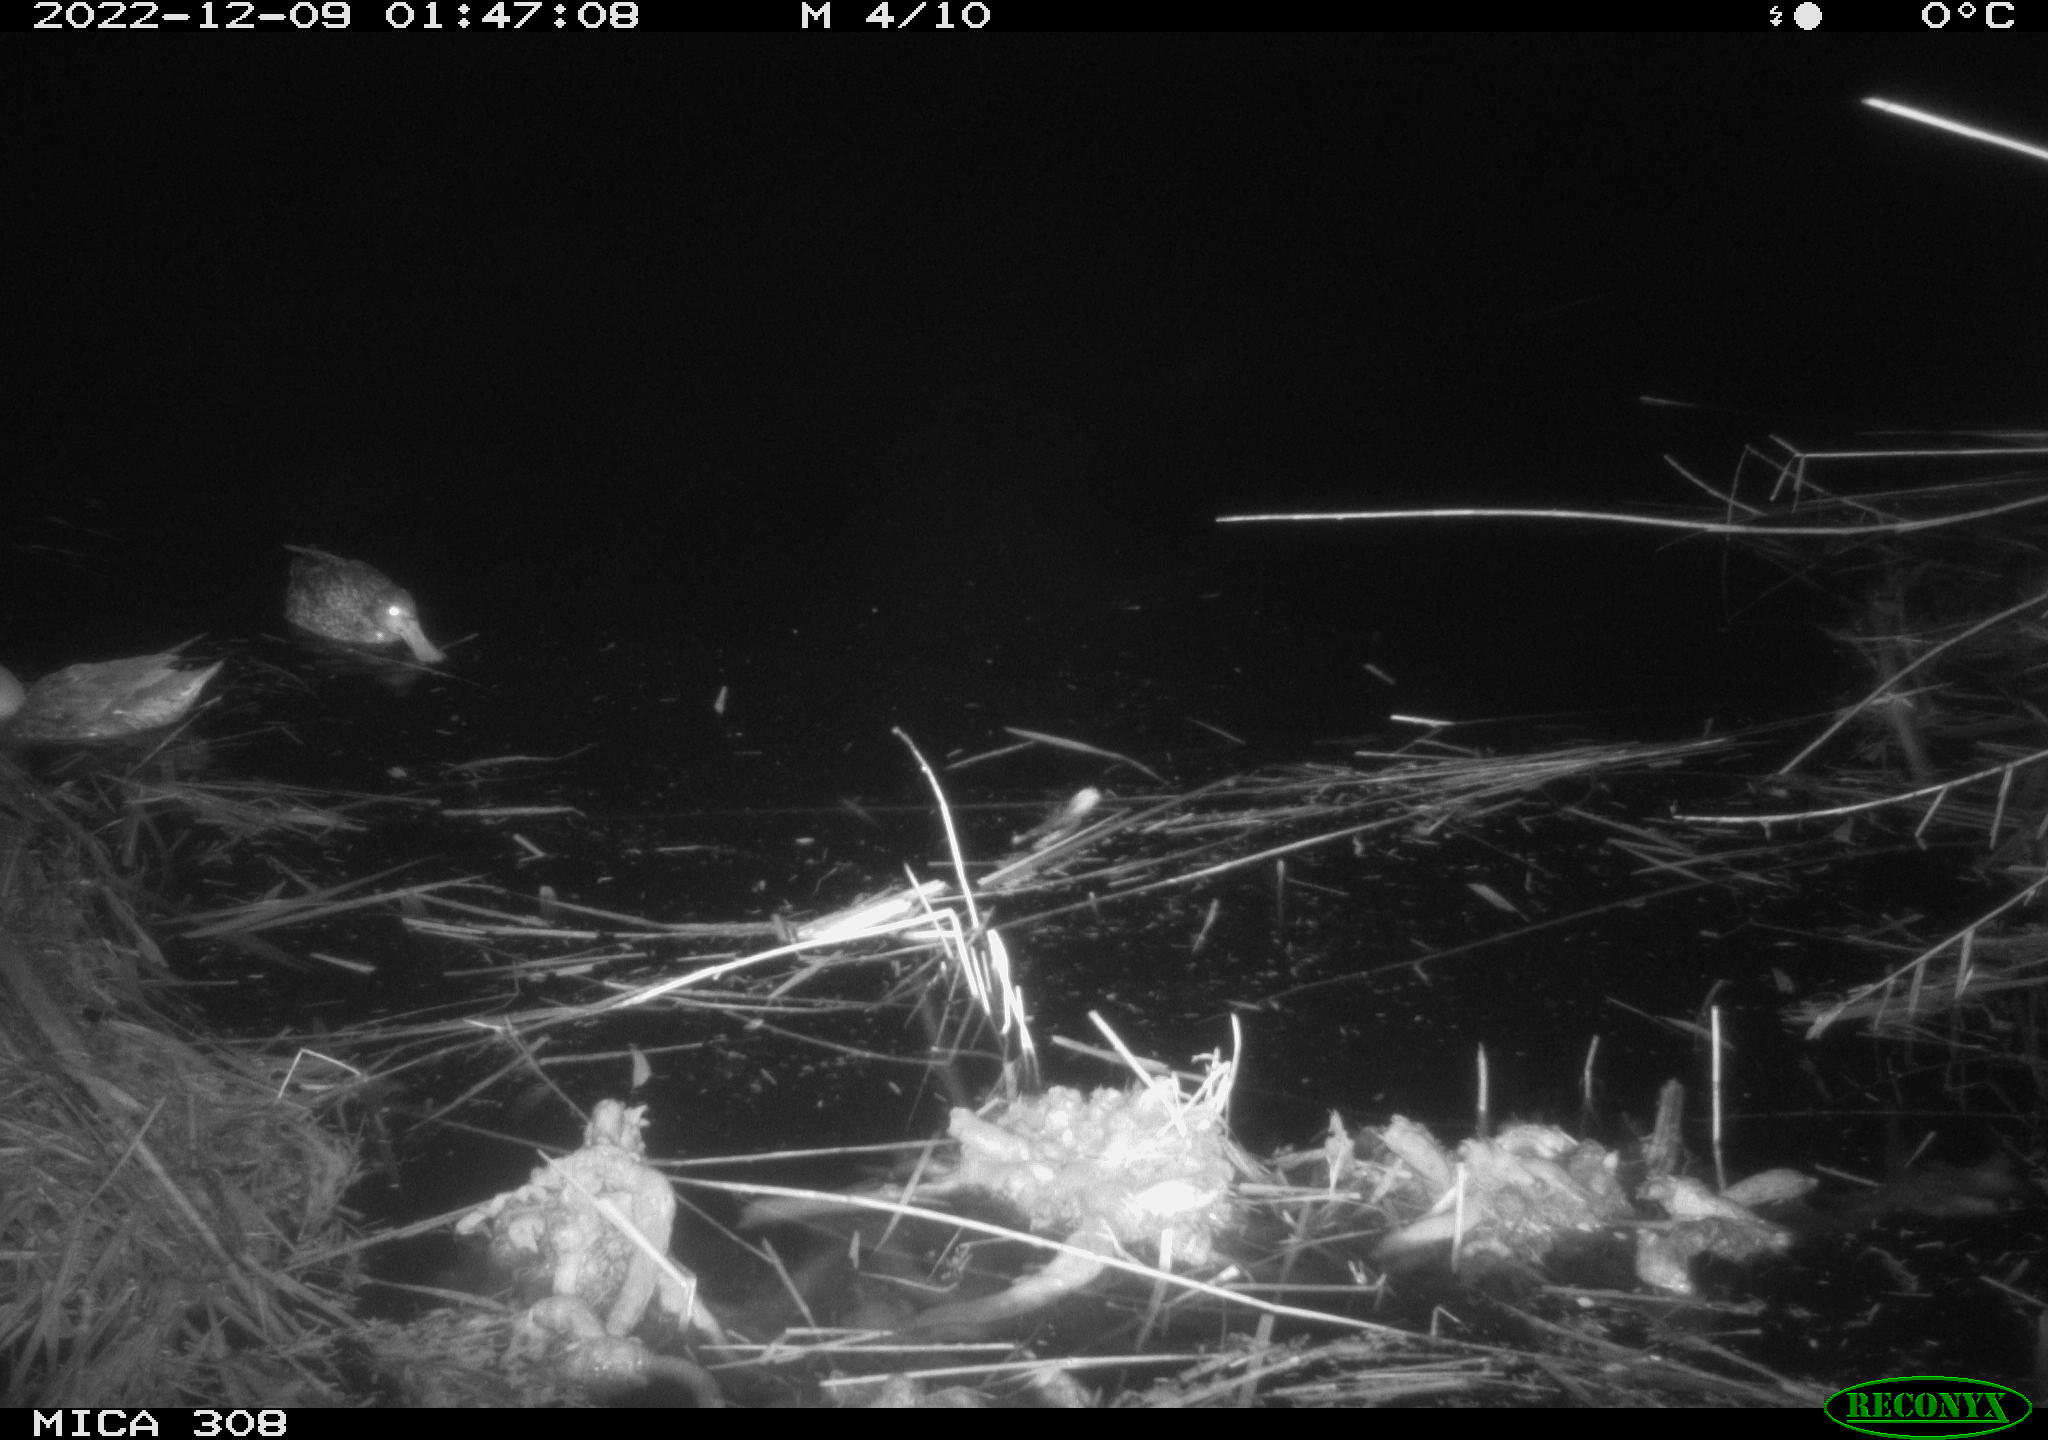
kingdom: Animalia
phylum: Chordata
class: Aves
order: Anseriformes
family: Anatidae
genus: Anas
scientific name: Anas
